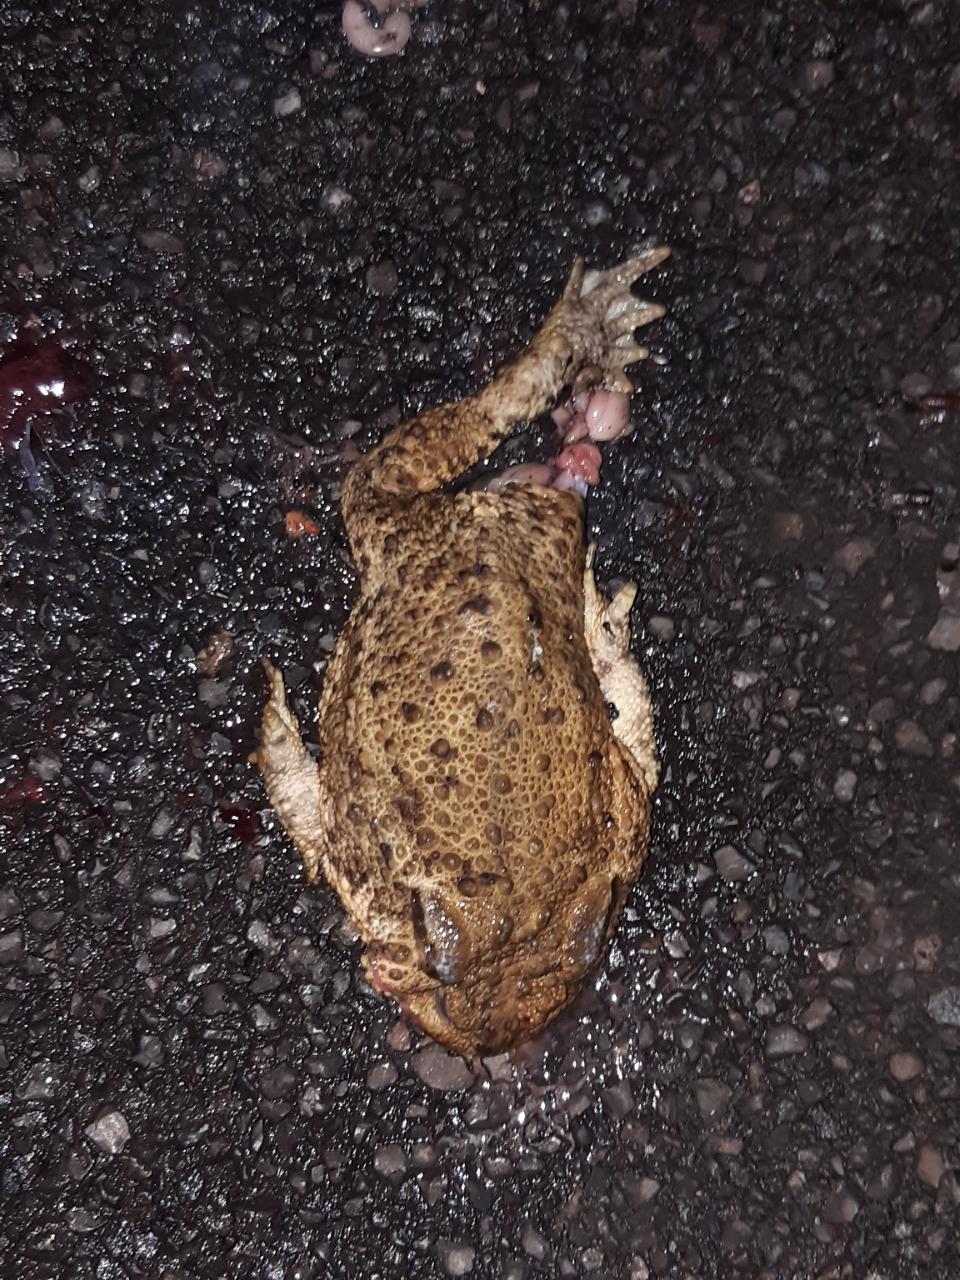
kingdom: Animalia
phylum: Chordata
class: Amphibia
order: Anura
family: Bufonidae
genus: Bufo
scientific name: Bufo bufo
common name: Common toad
